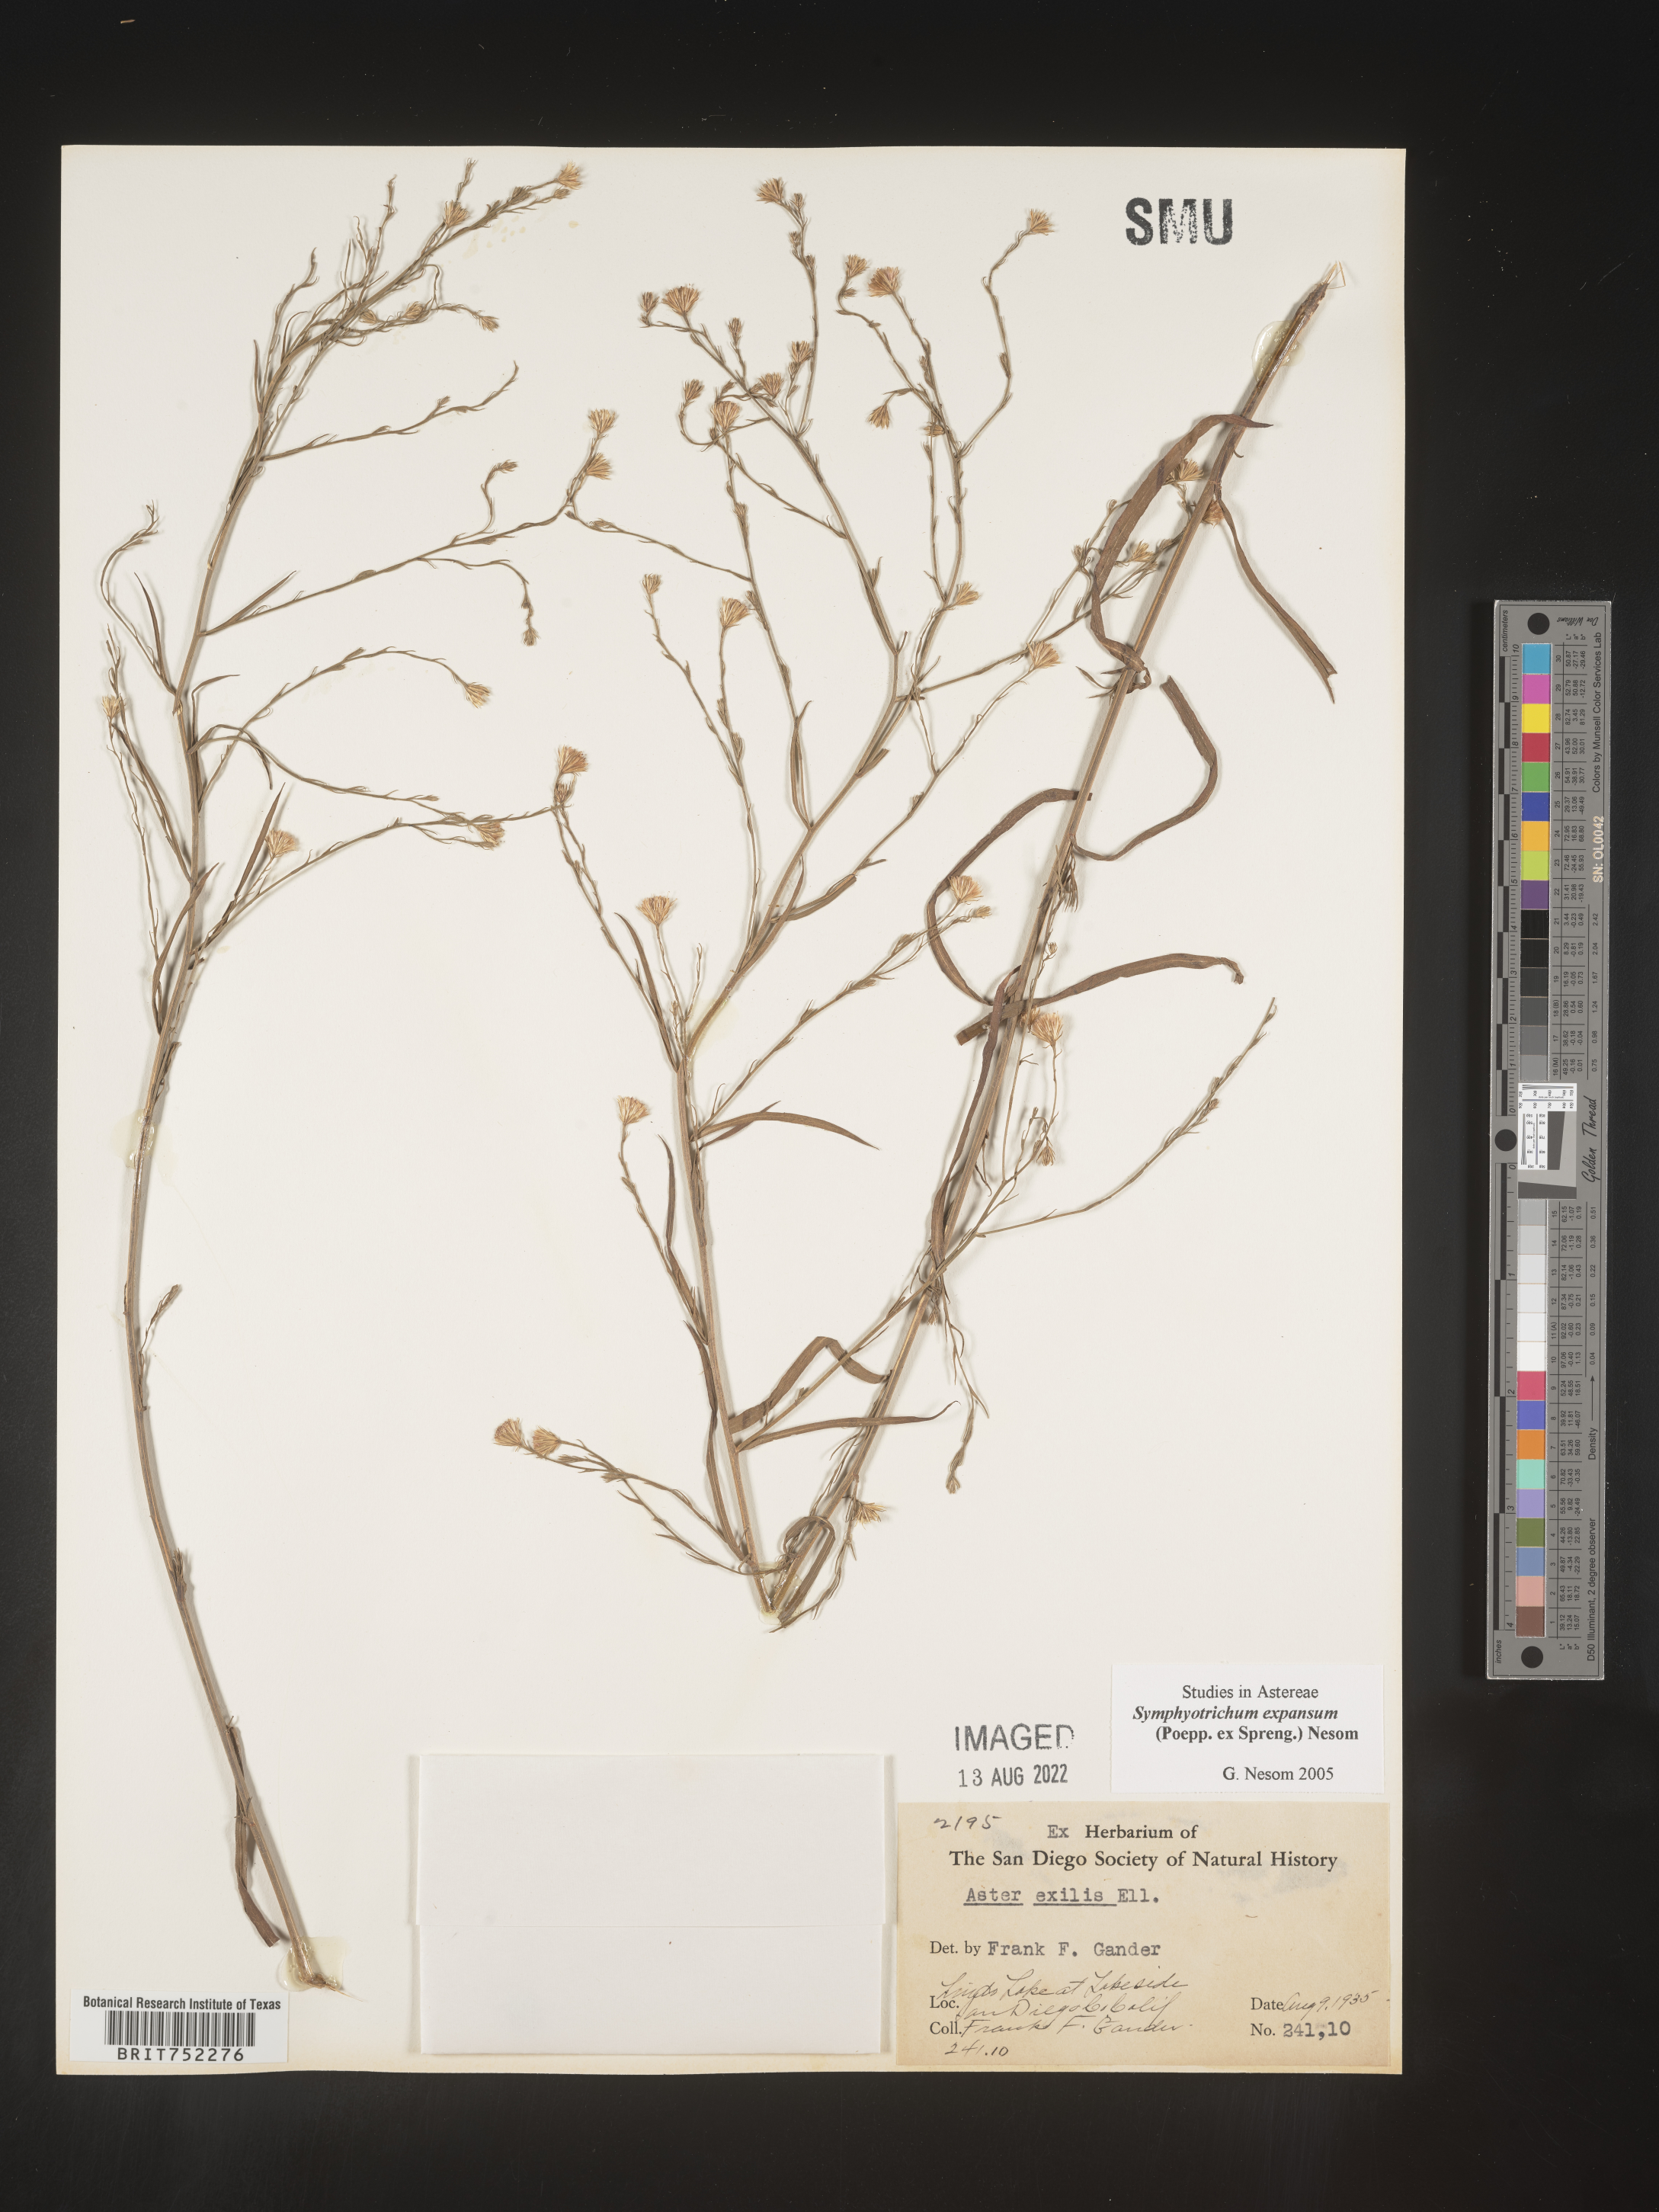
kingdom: Plantae
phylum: Tracheophyta
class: Magnoliopsida
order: Asterales
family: Asteraceae
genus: Symphyotrichum
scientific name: Symphyotrichum expansum
